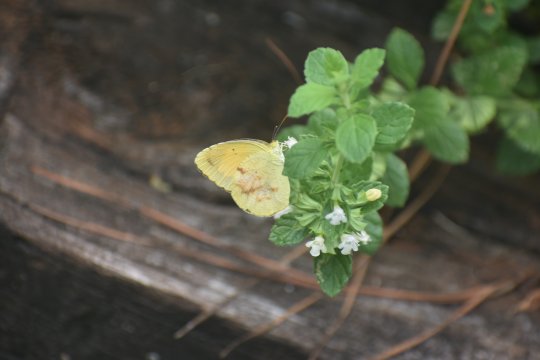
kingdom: Animalia
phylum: Arthropoda
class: Insecta
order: Lepidoptera
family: Pieridae
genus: Abaeis
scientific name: Abaeis nicippe
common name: Sleepy Orange
